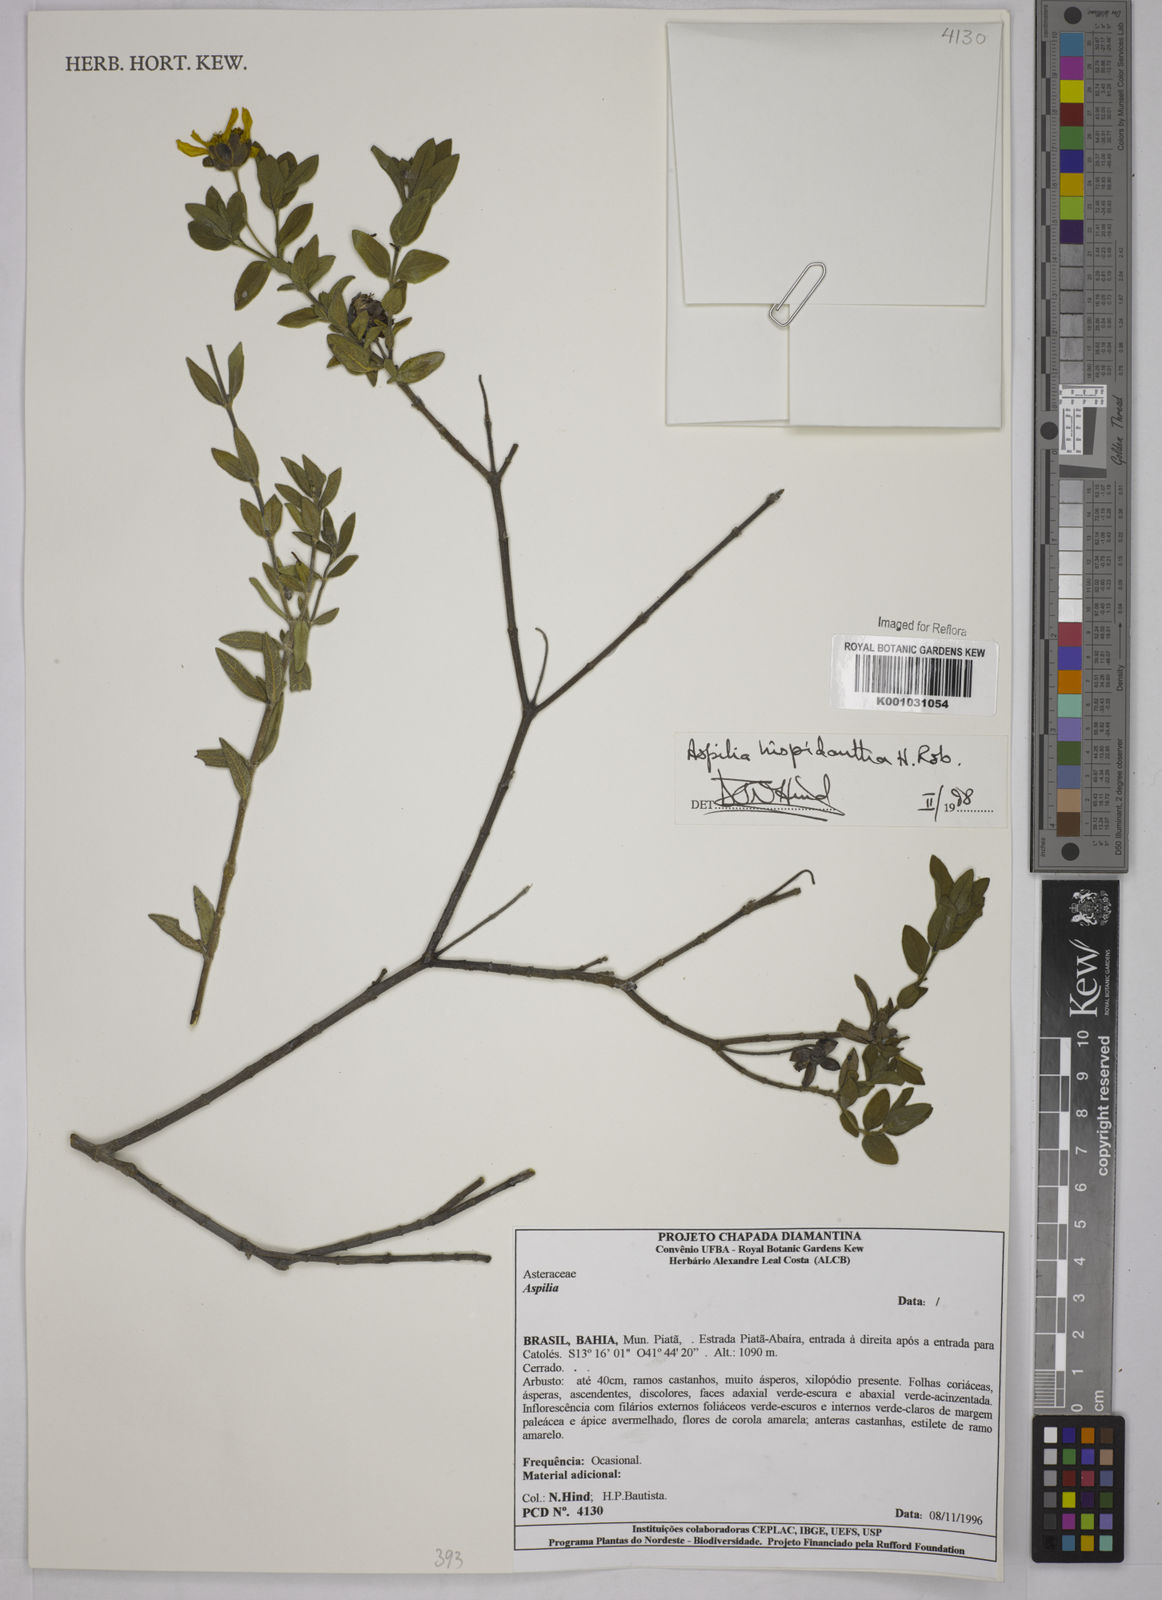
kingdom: Plantae
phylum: Tracheophyta
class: Magnoliopsida
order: Asterales
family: Asteraceae
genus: Wedelia
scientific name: Wedelia subalpestris
